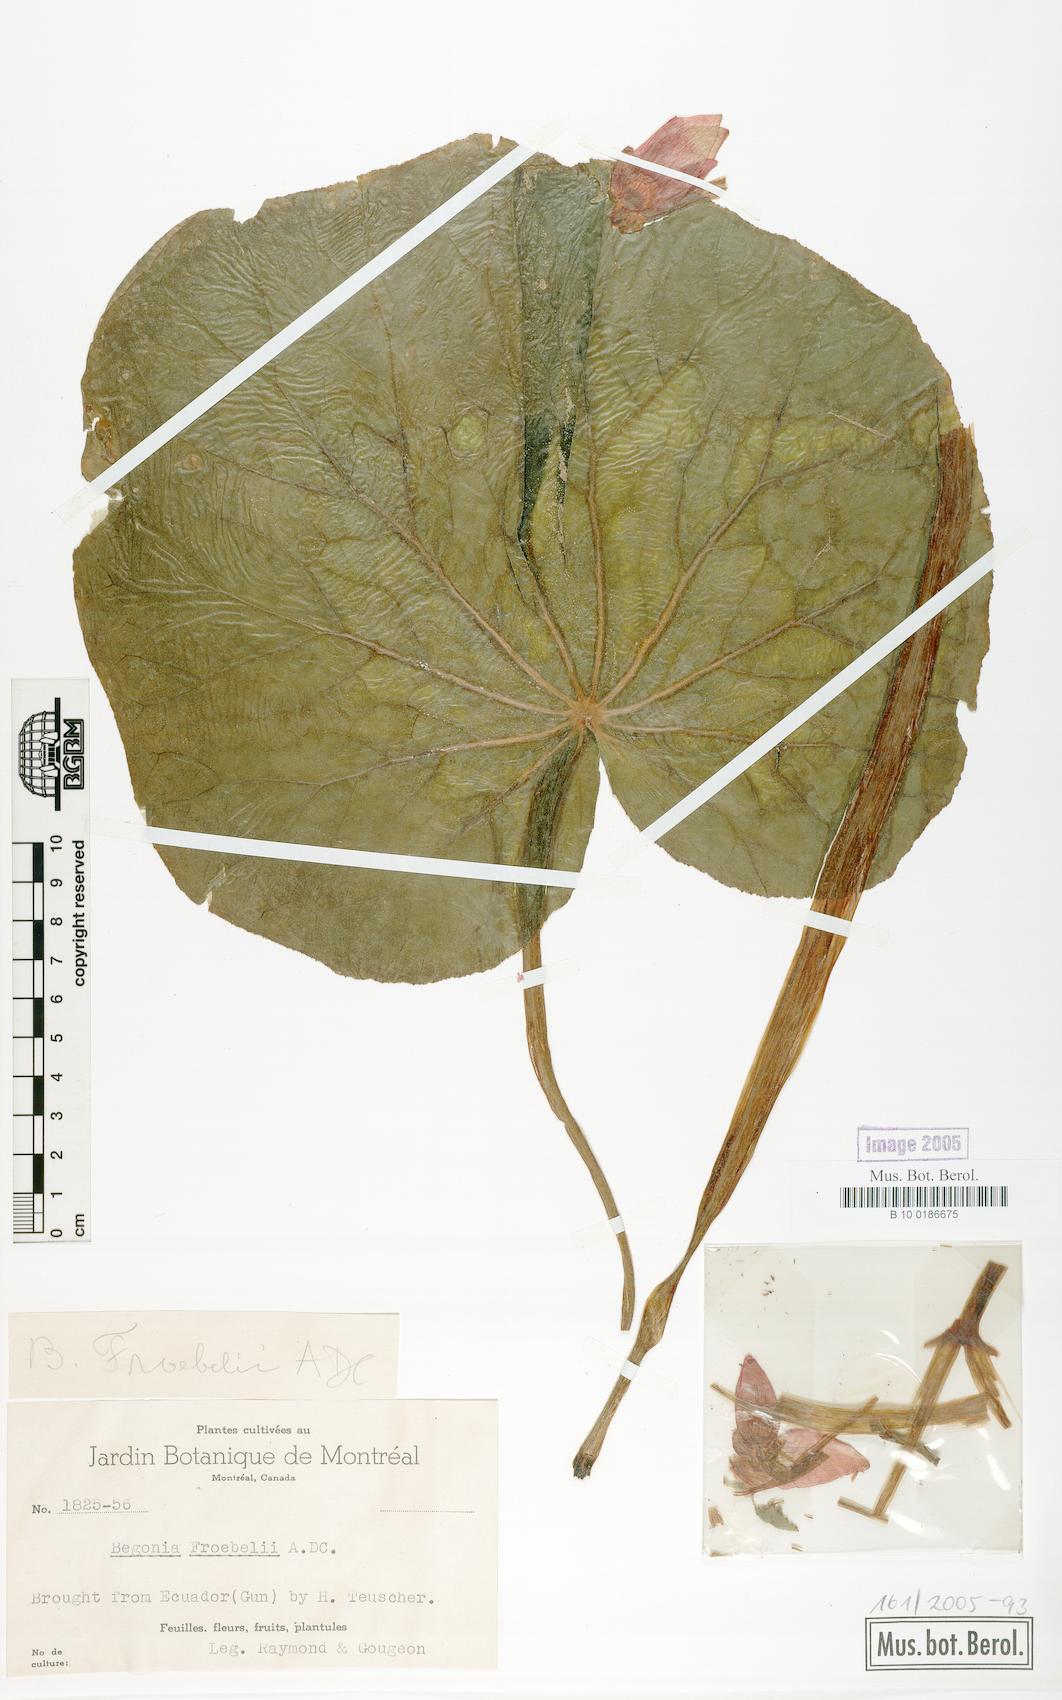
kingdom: Plantae
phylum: Tracheophyta
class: Magnoliopsida
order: Cucurbitales
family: Begoniaceae
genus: Begonia
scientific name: Begonia froebelii
